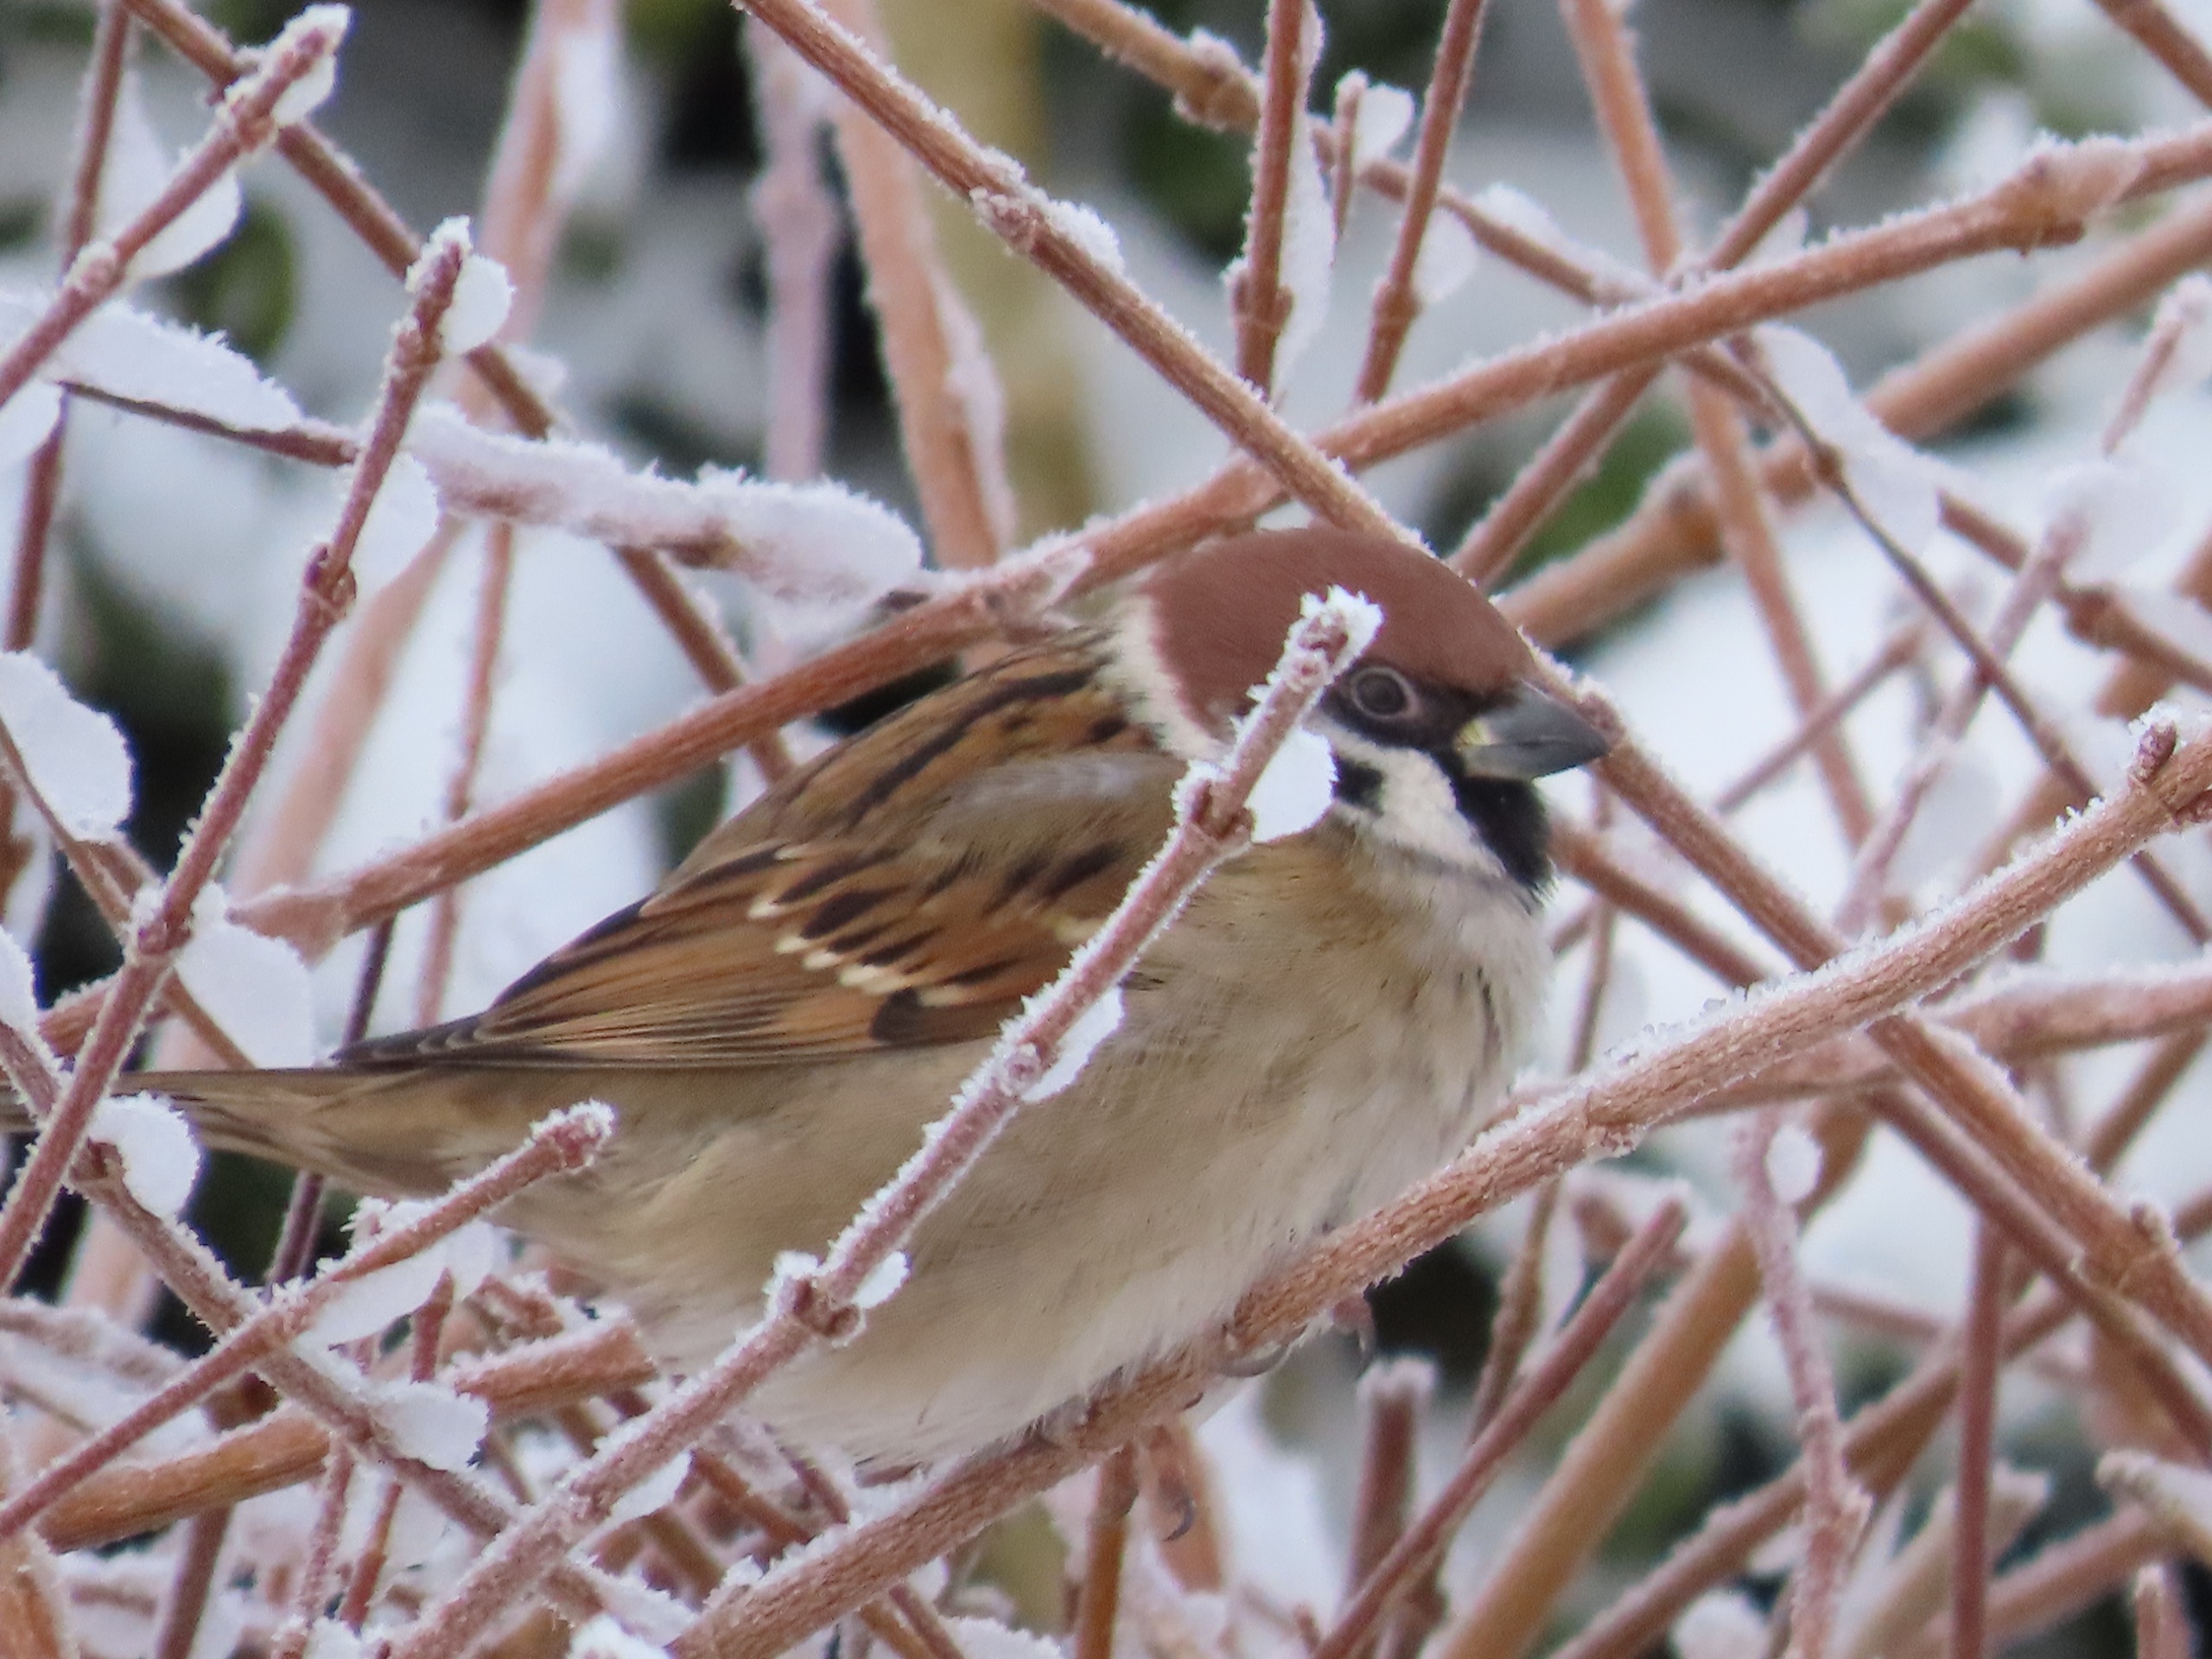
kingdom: Animalia
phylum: Chordata
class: Aves
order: Passeriformes
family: Passeridae
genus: Passer
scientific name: Passer montanus
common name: Skovspurv
